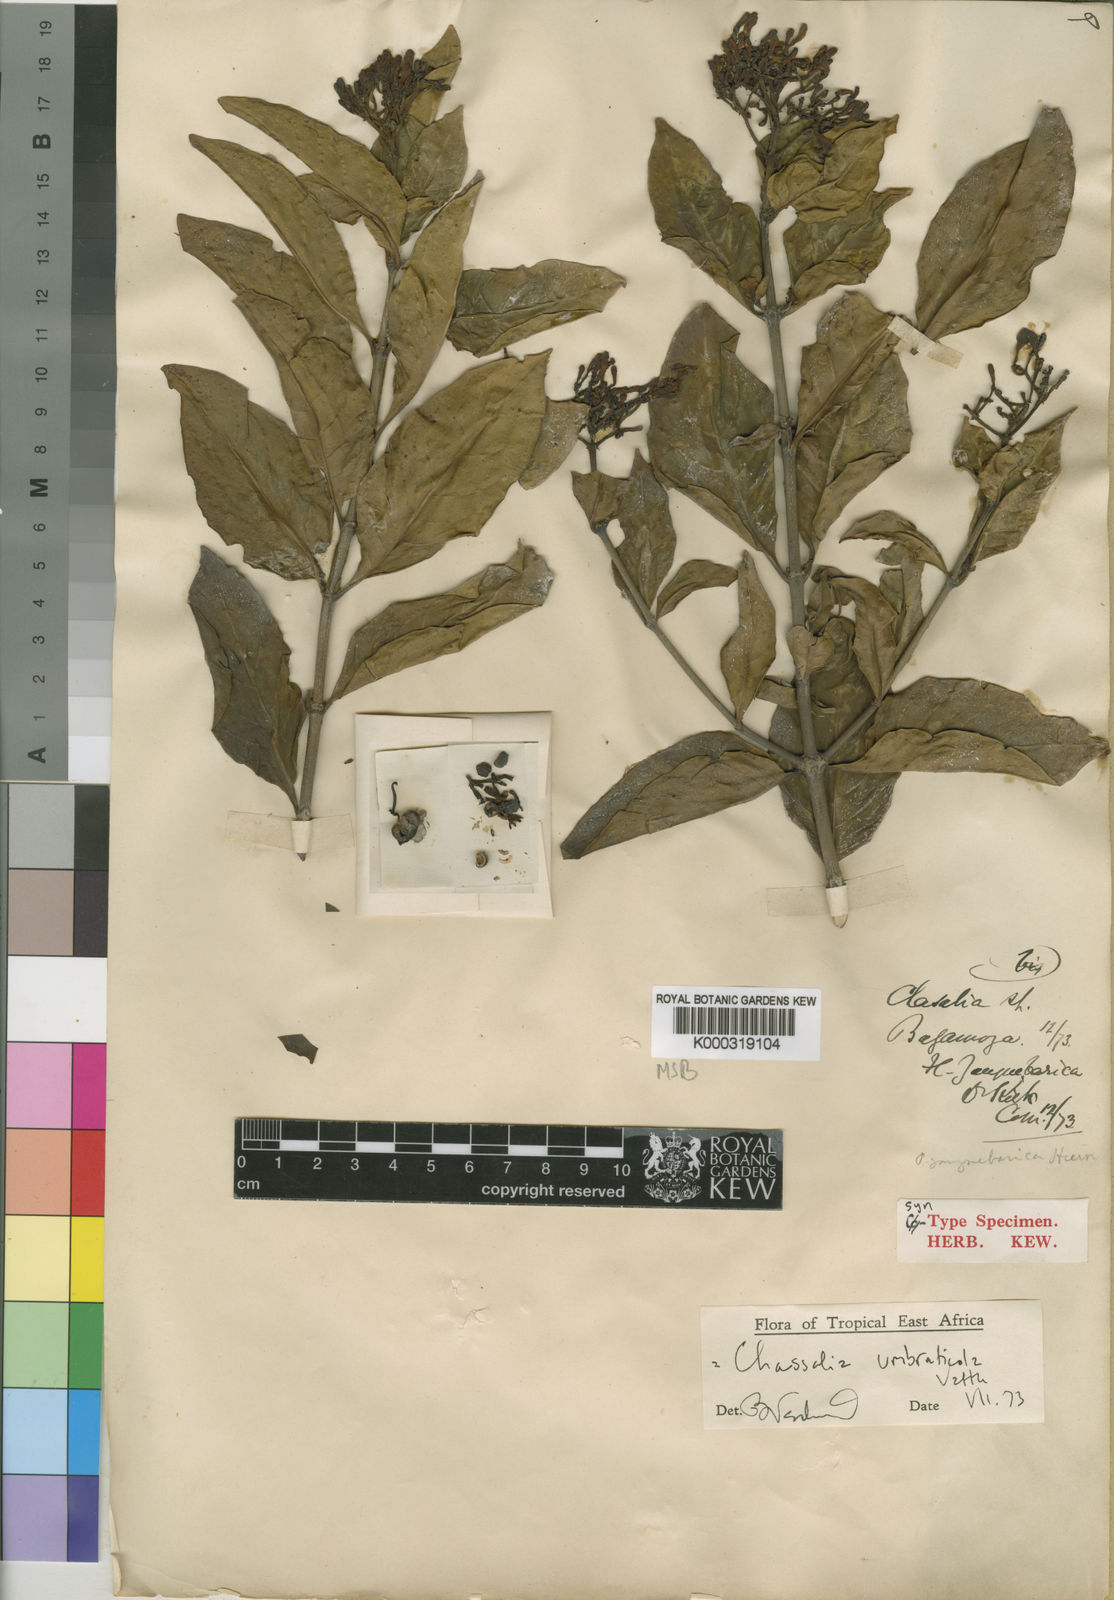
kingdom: Plantae
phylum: Tracheophyta
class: Magnoliopsida
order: Gentianales
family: Rubiaceae
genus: Chassalia
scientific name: Chassalia umbraticola
